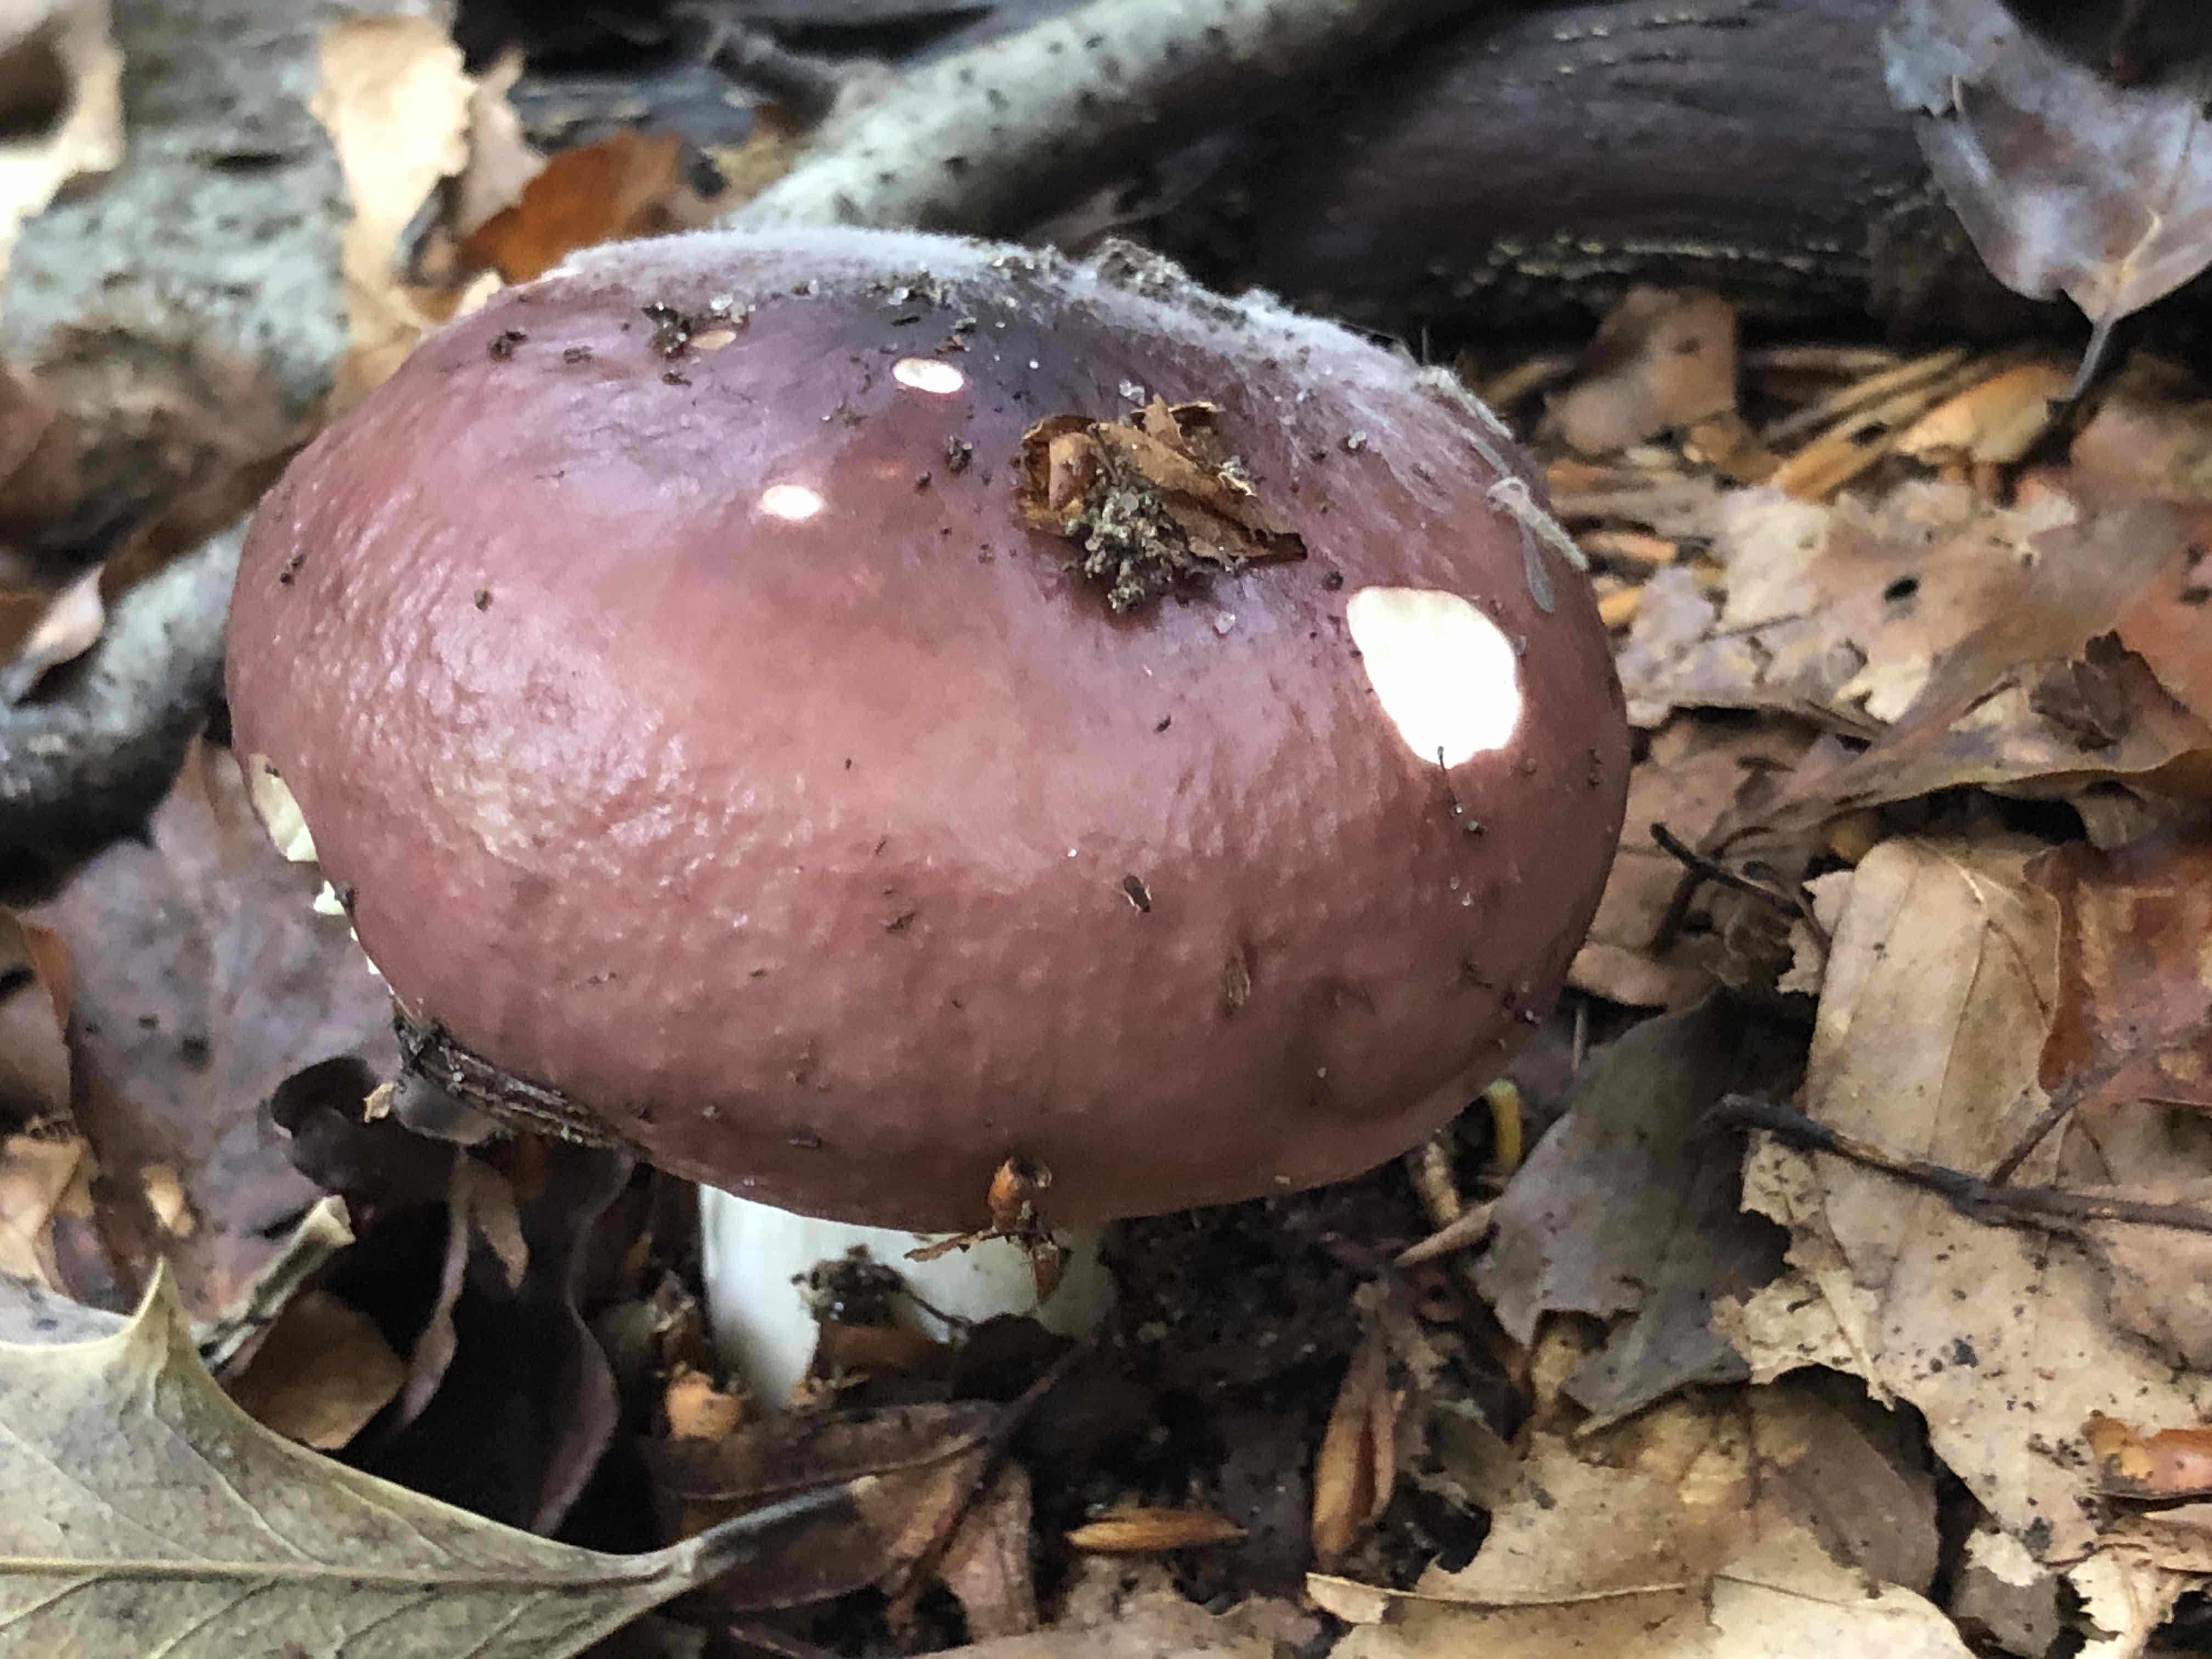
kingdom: Fungi
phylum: Basidiomycota
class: Agaricomycetes
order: Russulales
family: Russulaceae
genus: Russula
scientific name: Russula cyanoxantha
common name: broget skørhat
